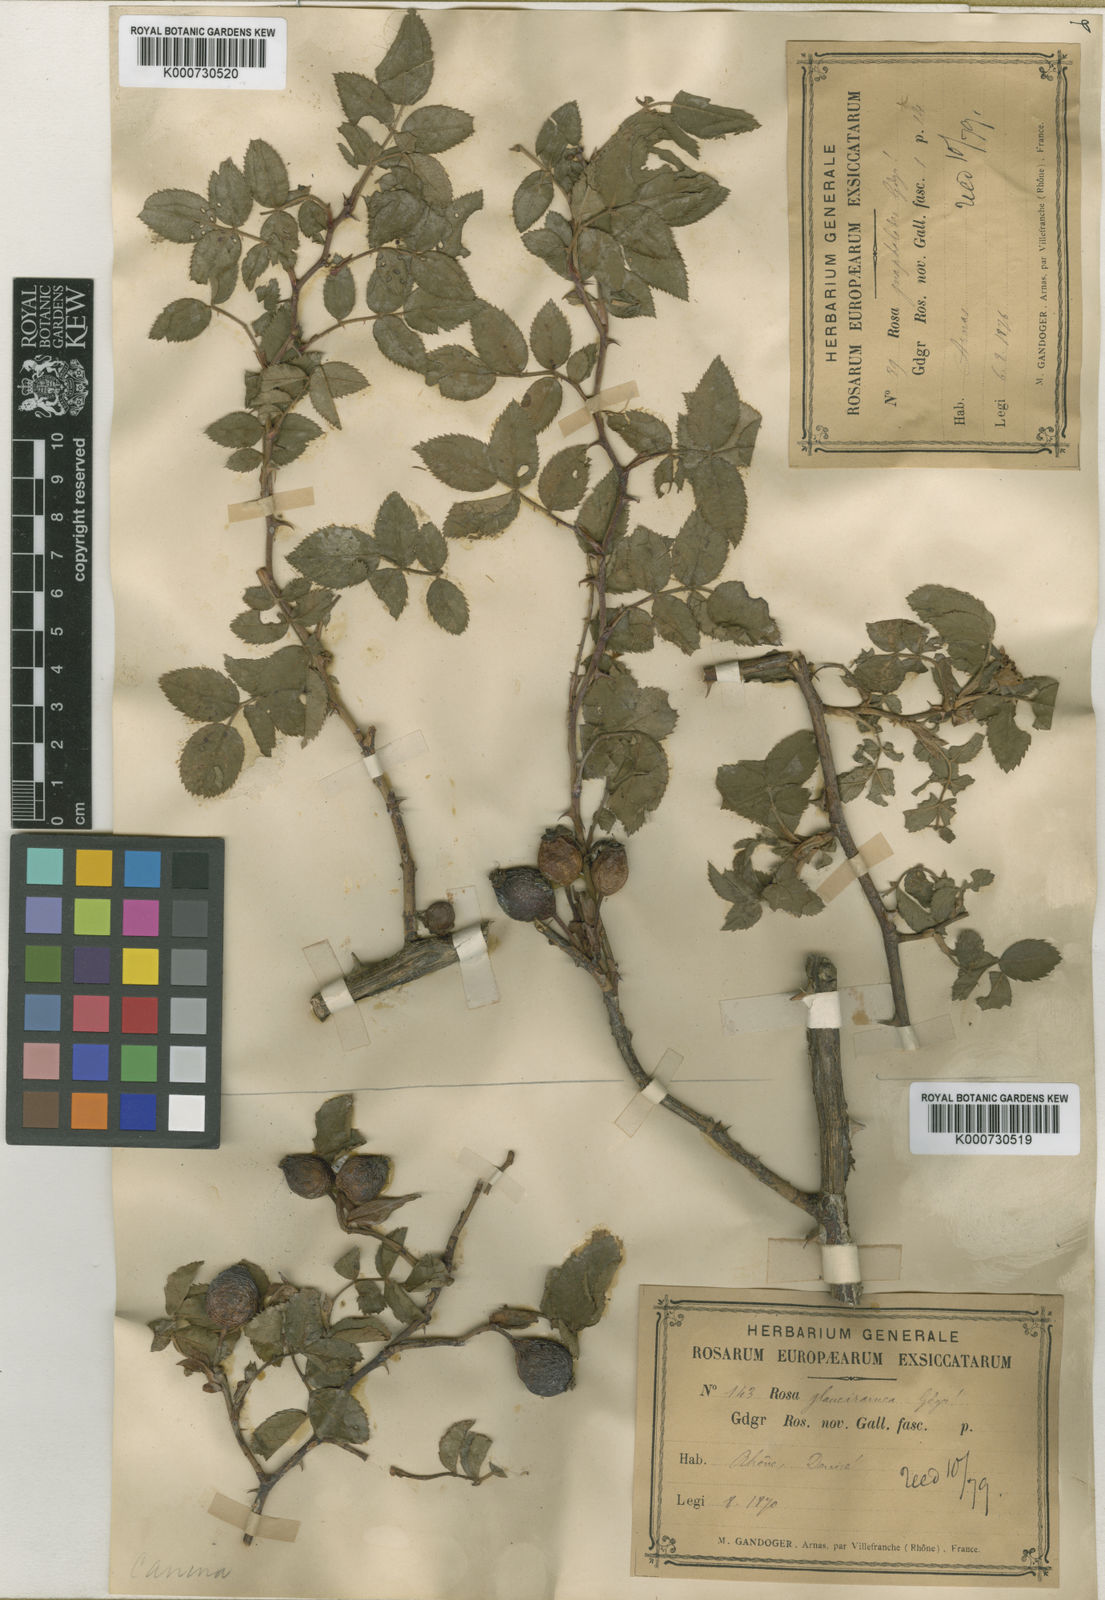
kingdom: Plantae
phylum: Tracheophyta
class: Magnoliopsida
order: Rosales
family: Rosaceae
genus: Rosa
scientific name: Rosa canina
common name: Dog rose
